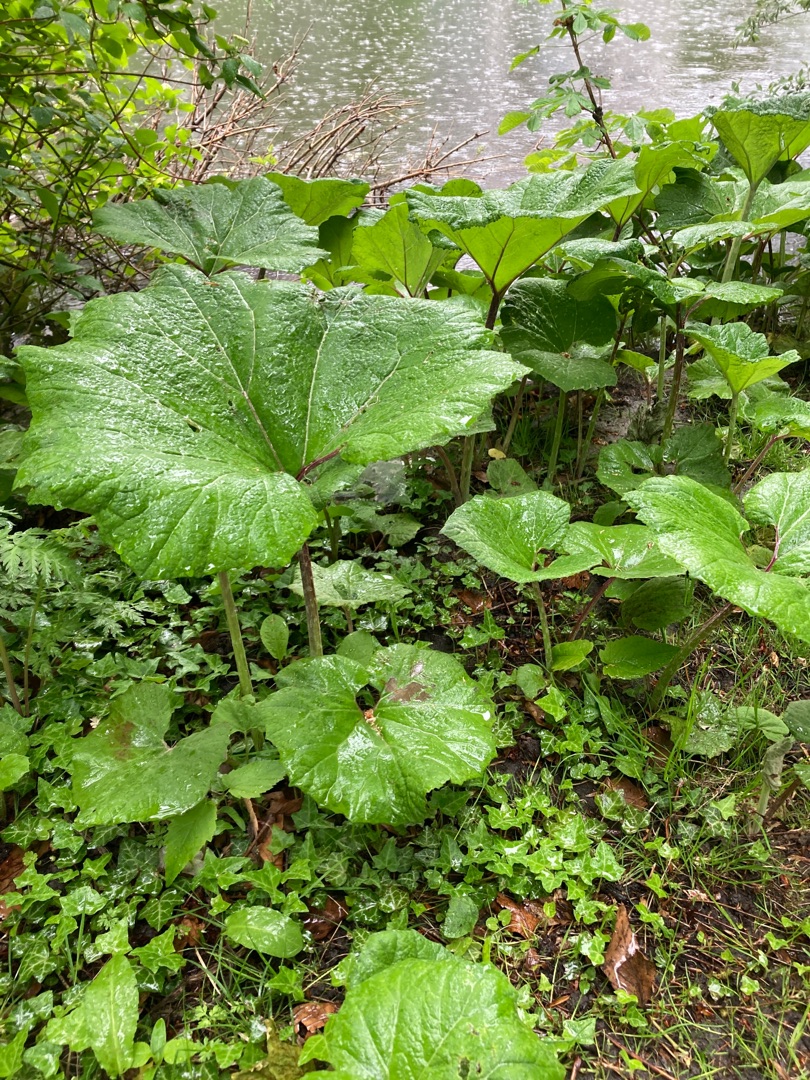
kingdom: Plantae
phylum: Tracheophyta
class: Magnoliopsida
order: Asterales
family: Asteraceae
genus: Petasites
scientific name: Petasites hybridus
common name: Rød hestehov
